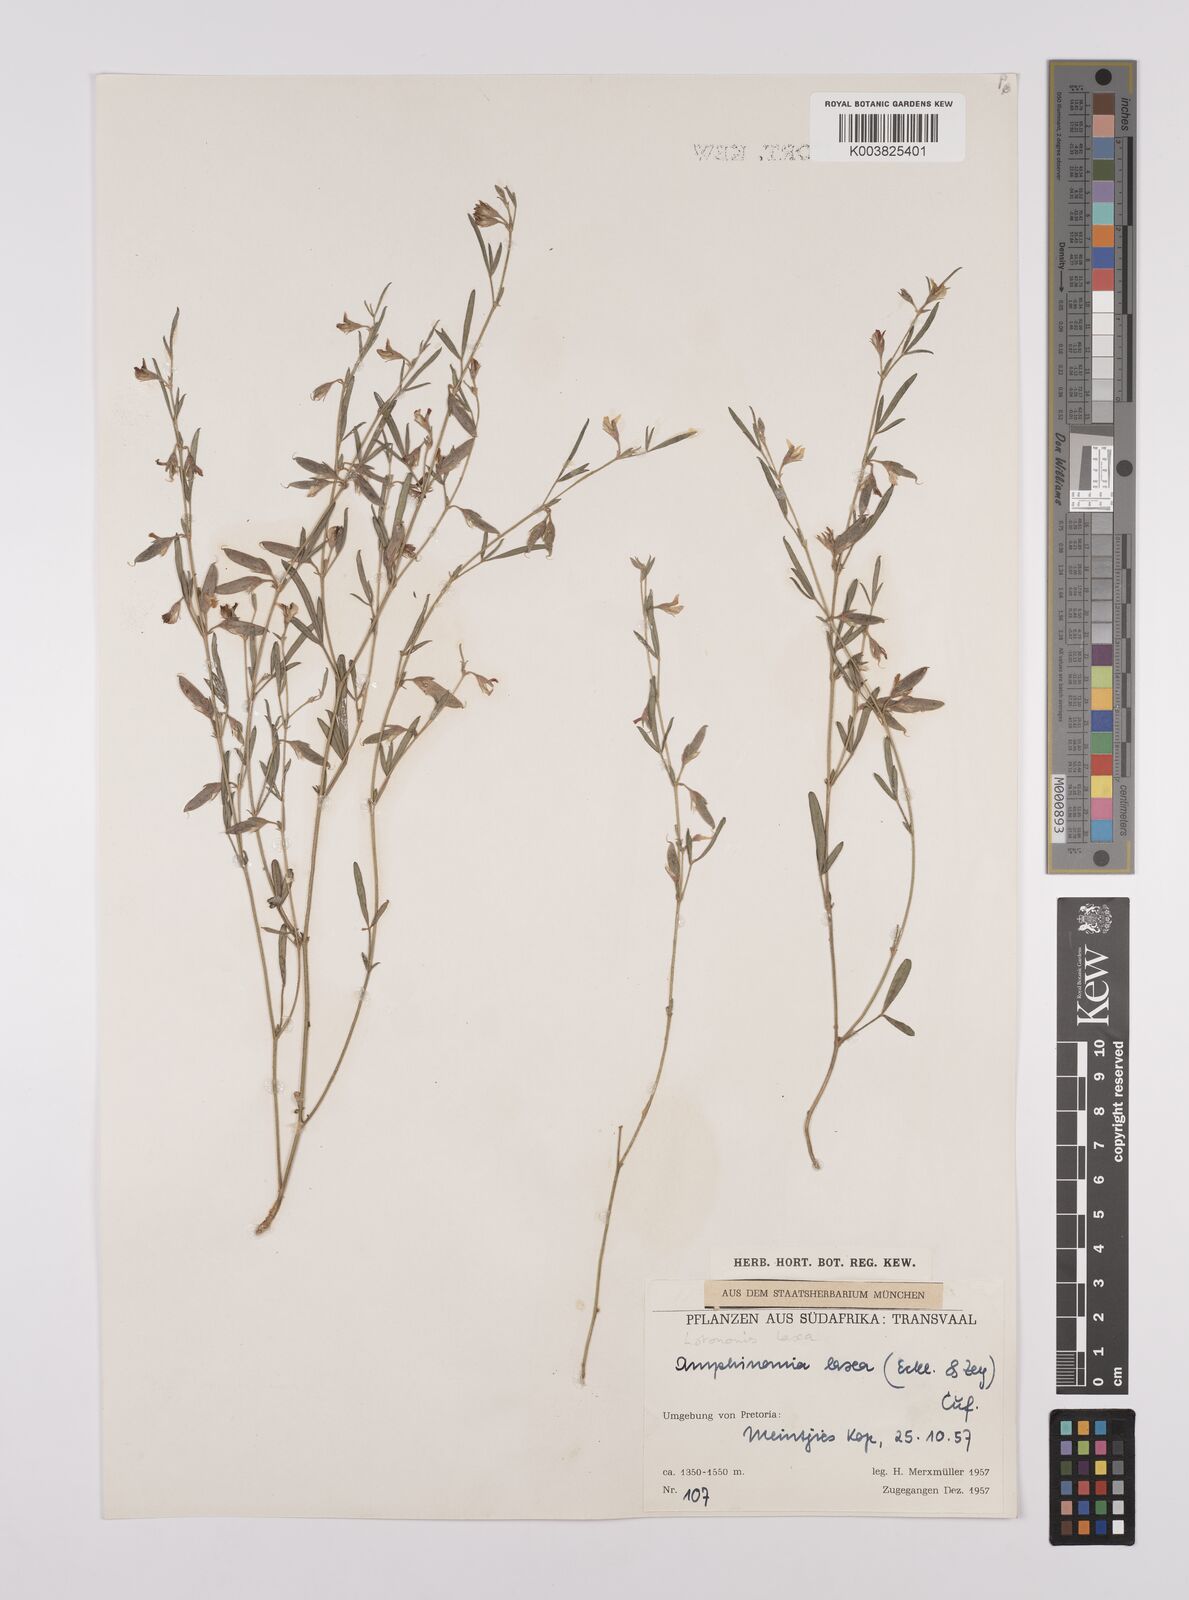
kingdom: Plantae
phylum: Tracheophyta
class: Magnoliopsida
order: Fabales
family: Fabaceae
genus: Lotononis
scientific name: Lotononis laxa
